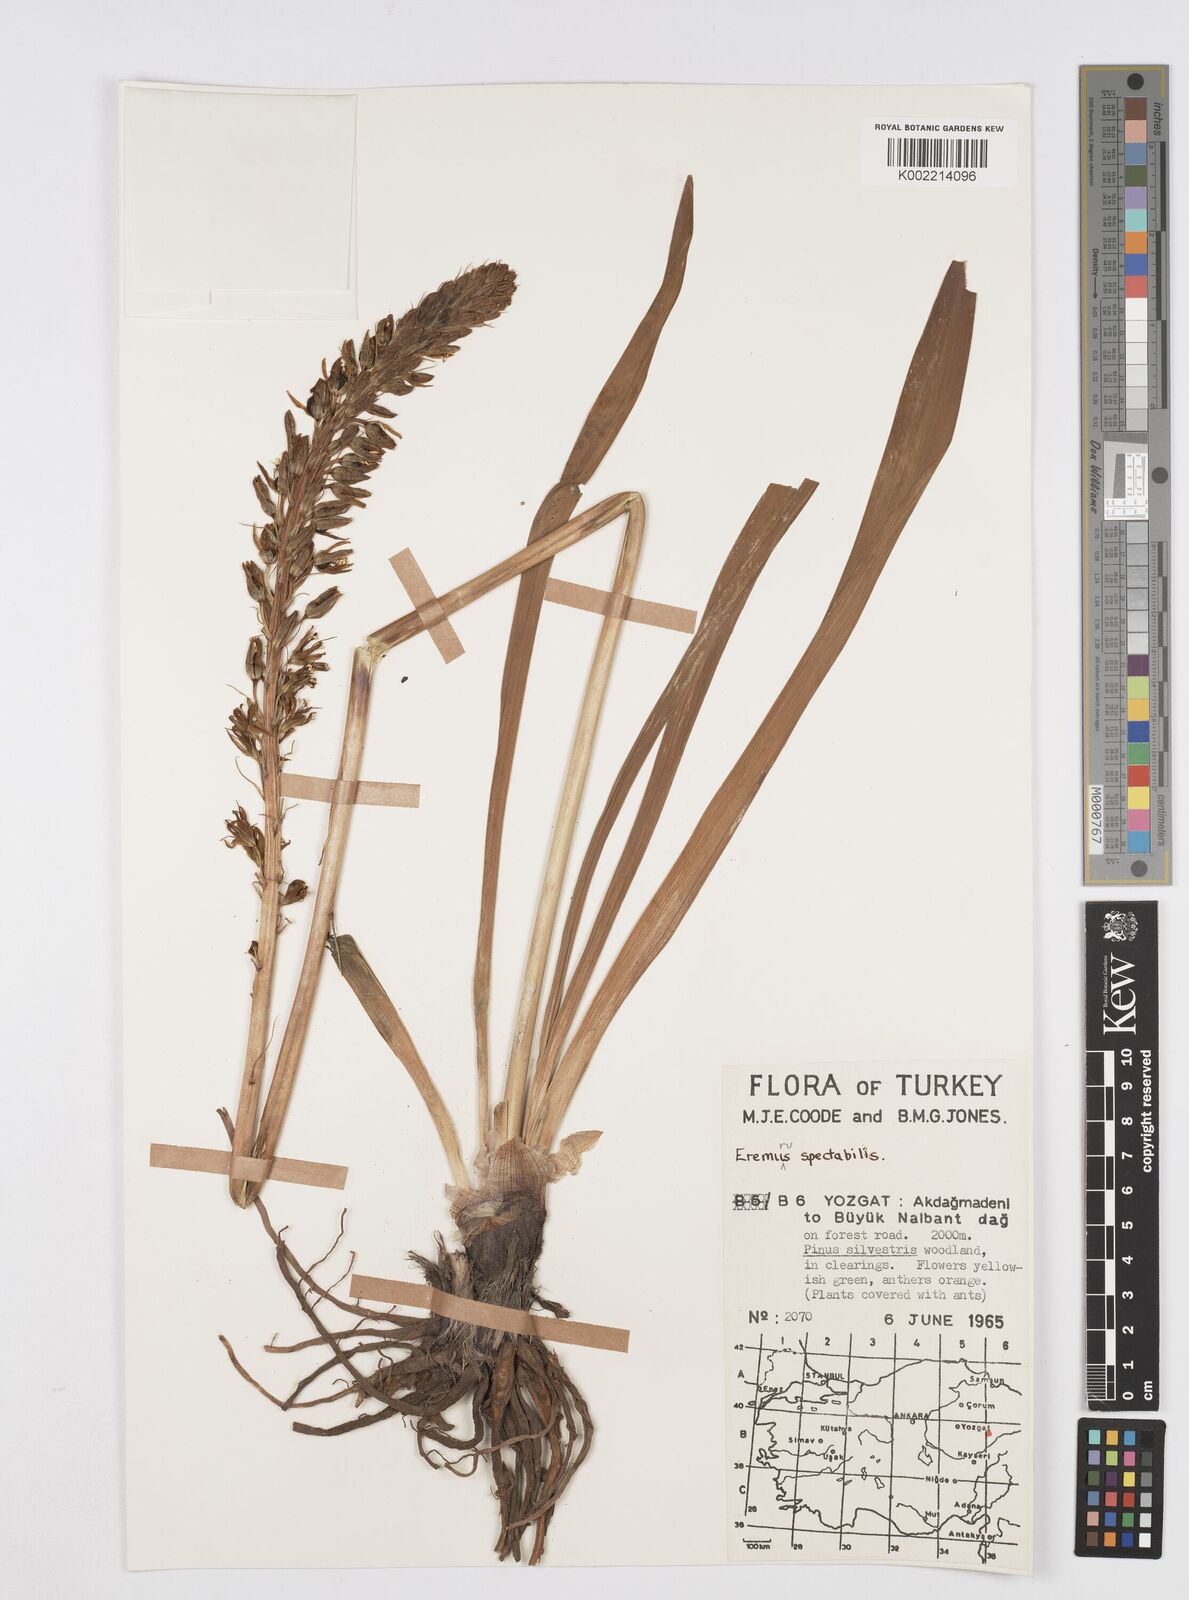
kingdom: Plantae
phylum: Tracheophyta
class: Liliopsida
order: Asparagales
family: Asphodelaceae
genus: Eremurus
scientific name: Eremurus spectabilis
